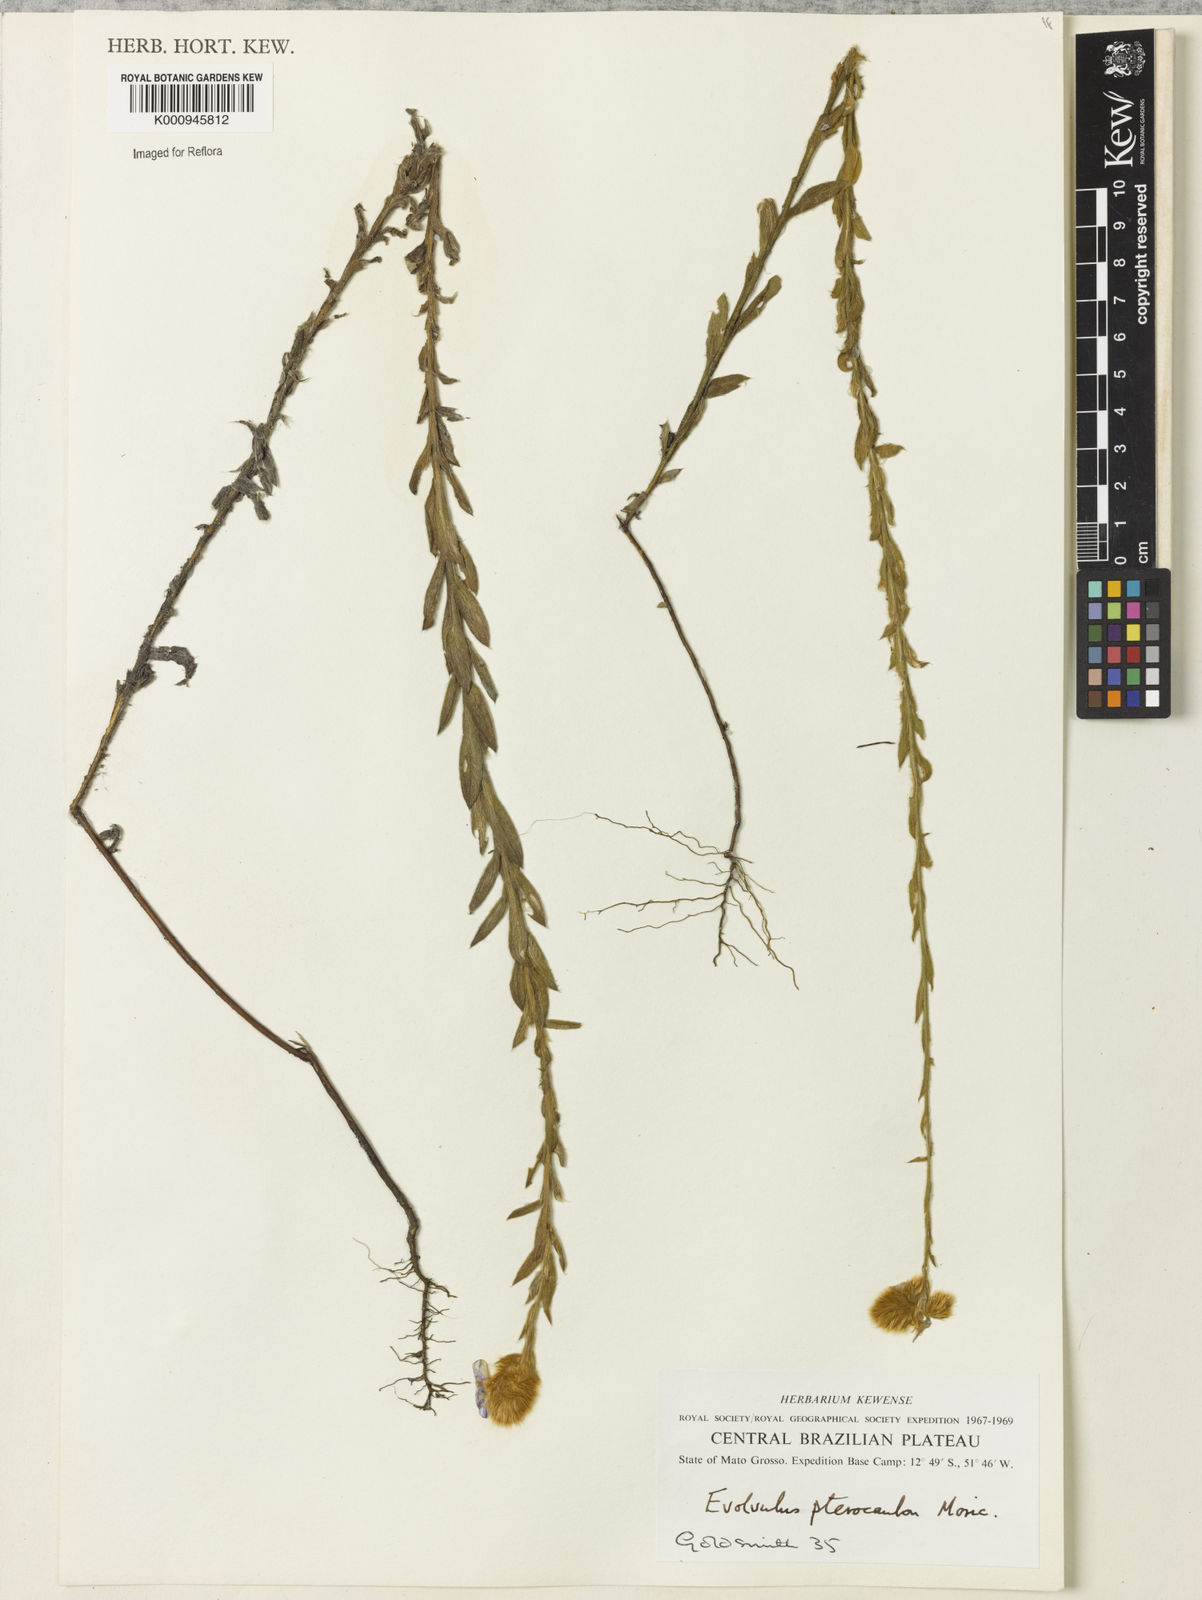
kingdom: Plantae
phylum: Tracheophyta
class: Magnoliopsida
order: Solanales
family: Convolvulaceae
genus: Evolvulus
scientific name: Evolvulus pterocaulon
